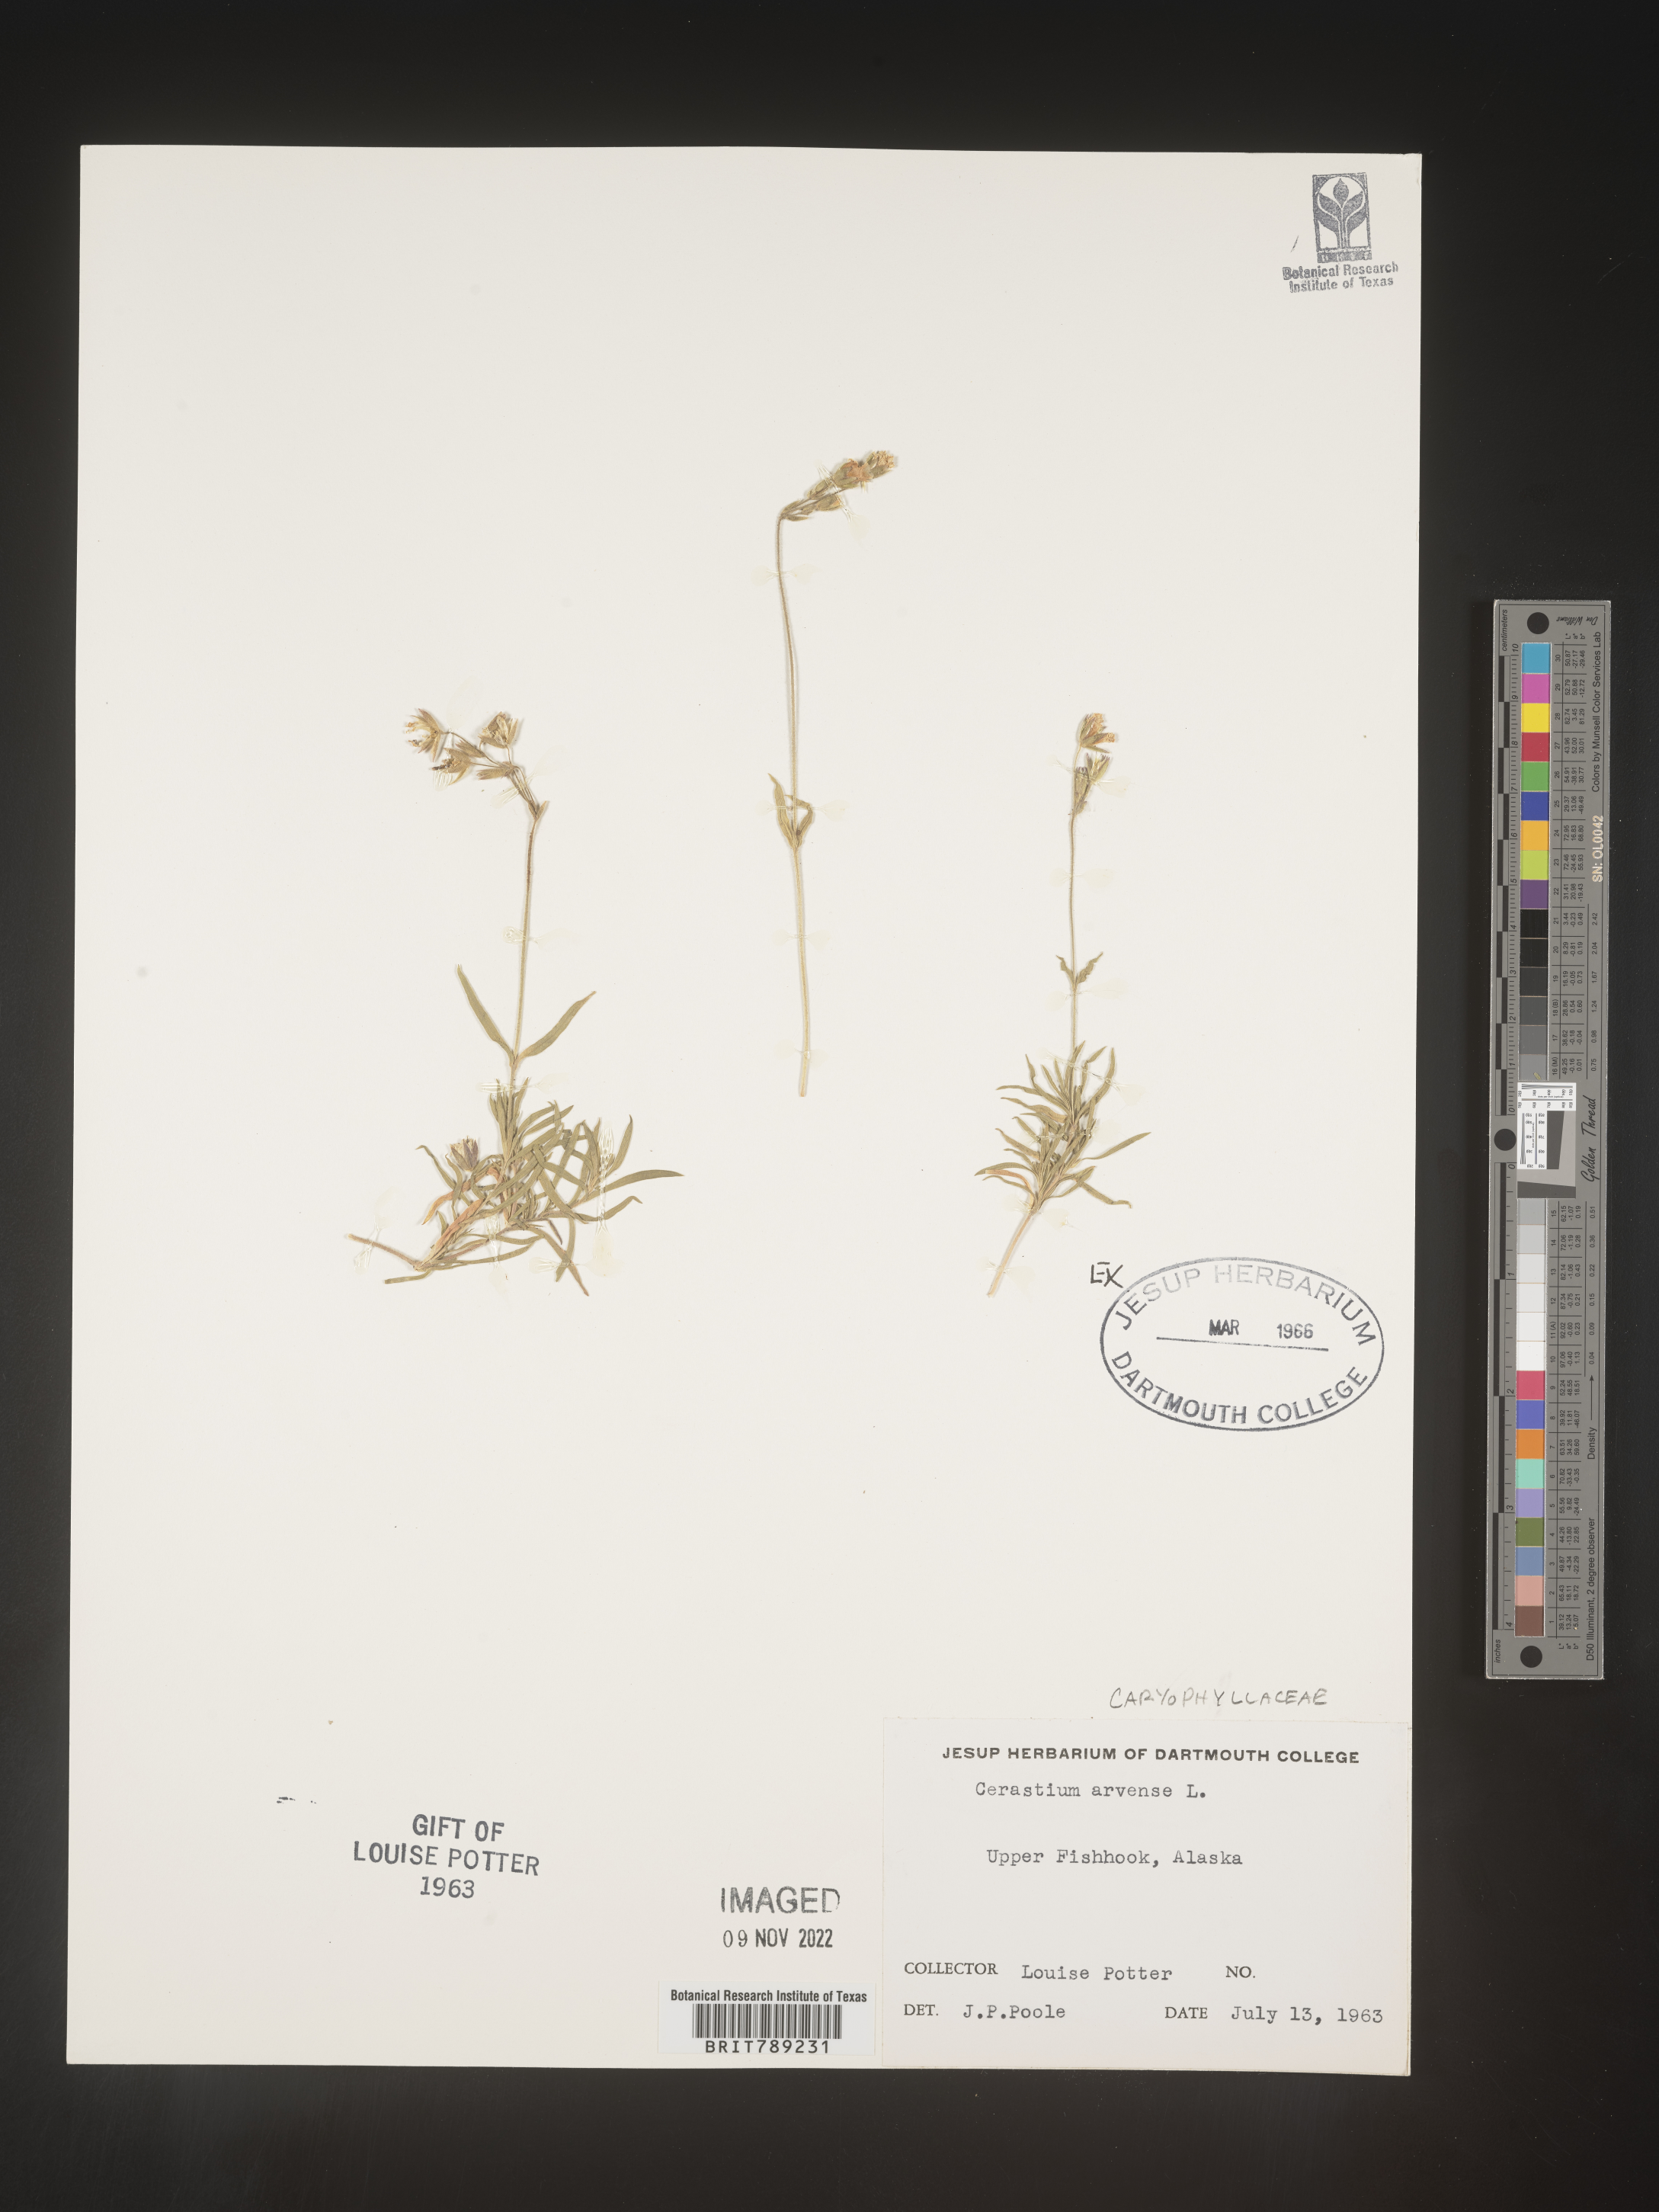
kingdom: Plantae
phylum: Tracheophyta
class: Magnoliopsida
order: Caryophyllales
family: Caryophyllaceae
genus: Cerastium
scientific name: Cerastium arvense
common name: Field mouse-ear
